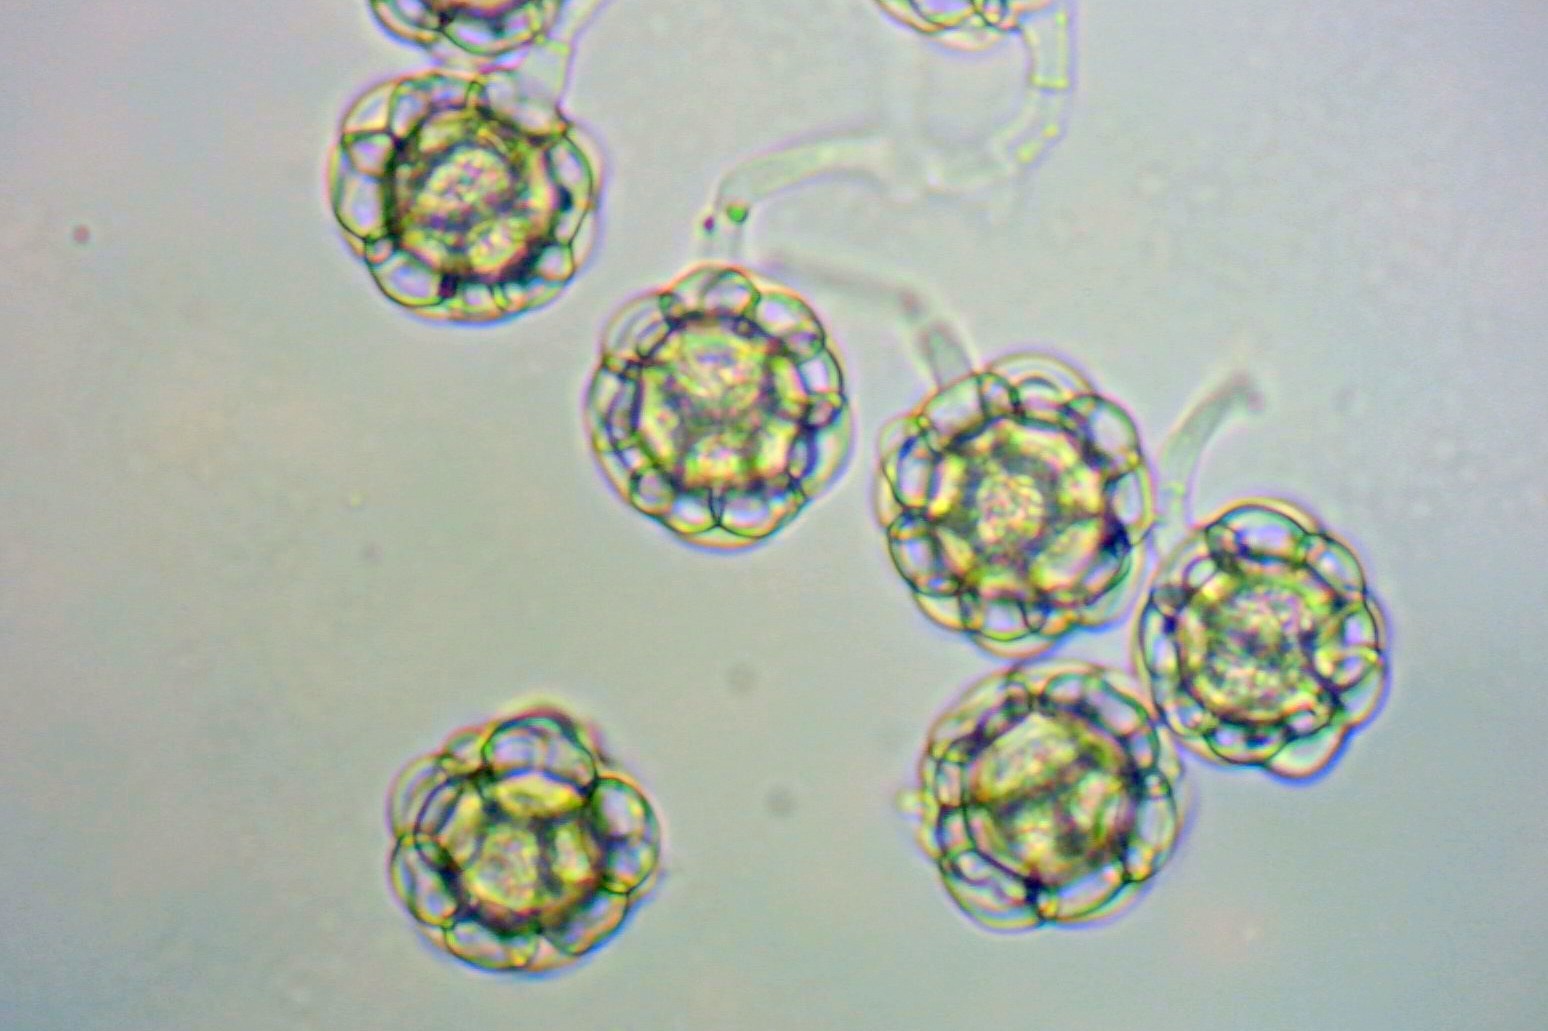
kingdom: Fungi
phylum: Ascomycota
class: Sordariomycetes
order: Hypocreales
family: Hypocreaceae
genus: Hypomyces
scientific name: Hypomyces papulasporae
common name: jordtunge-snylteskorpe
